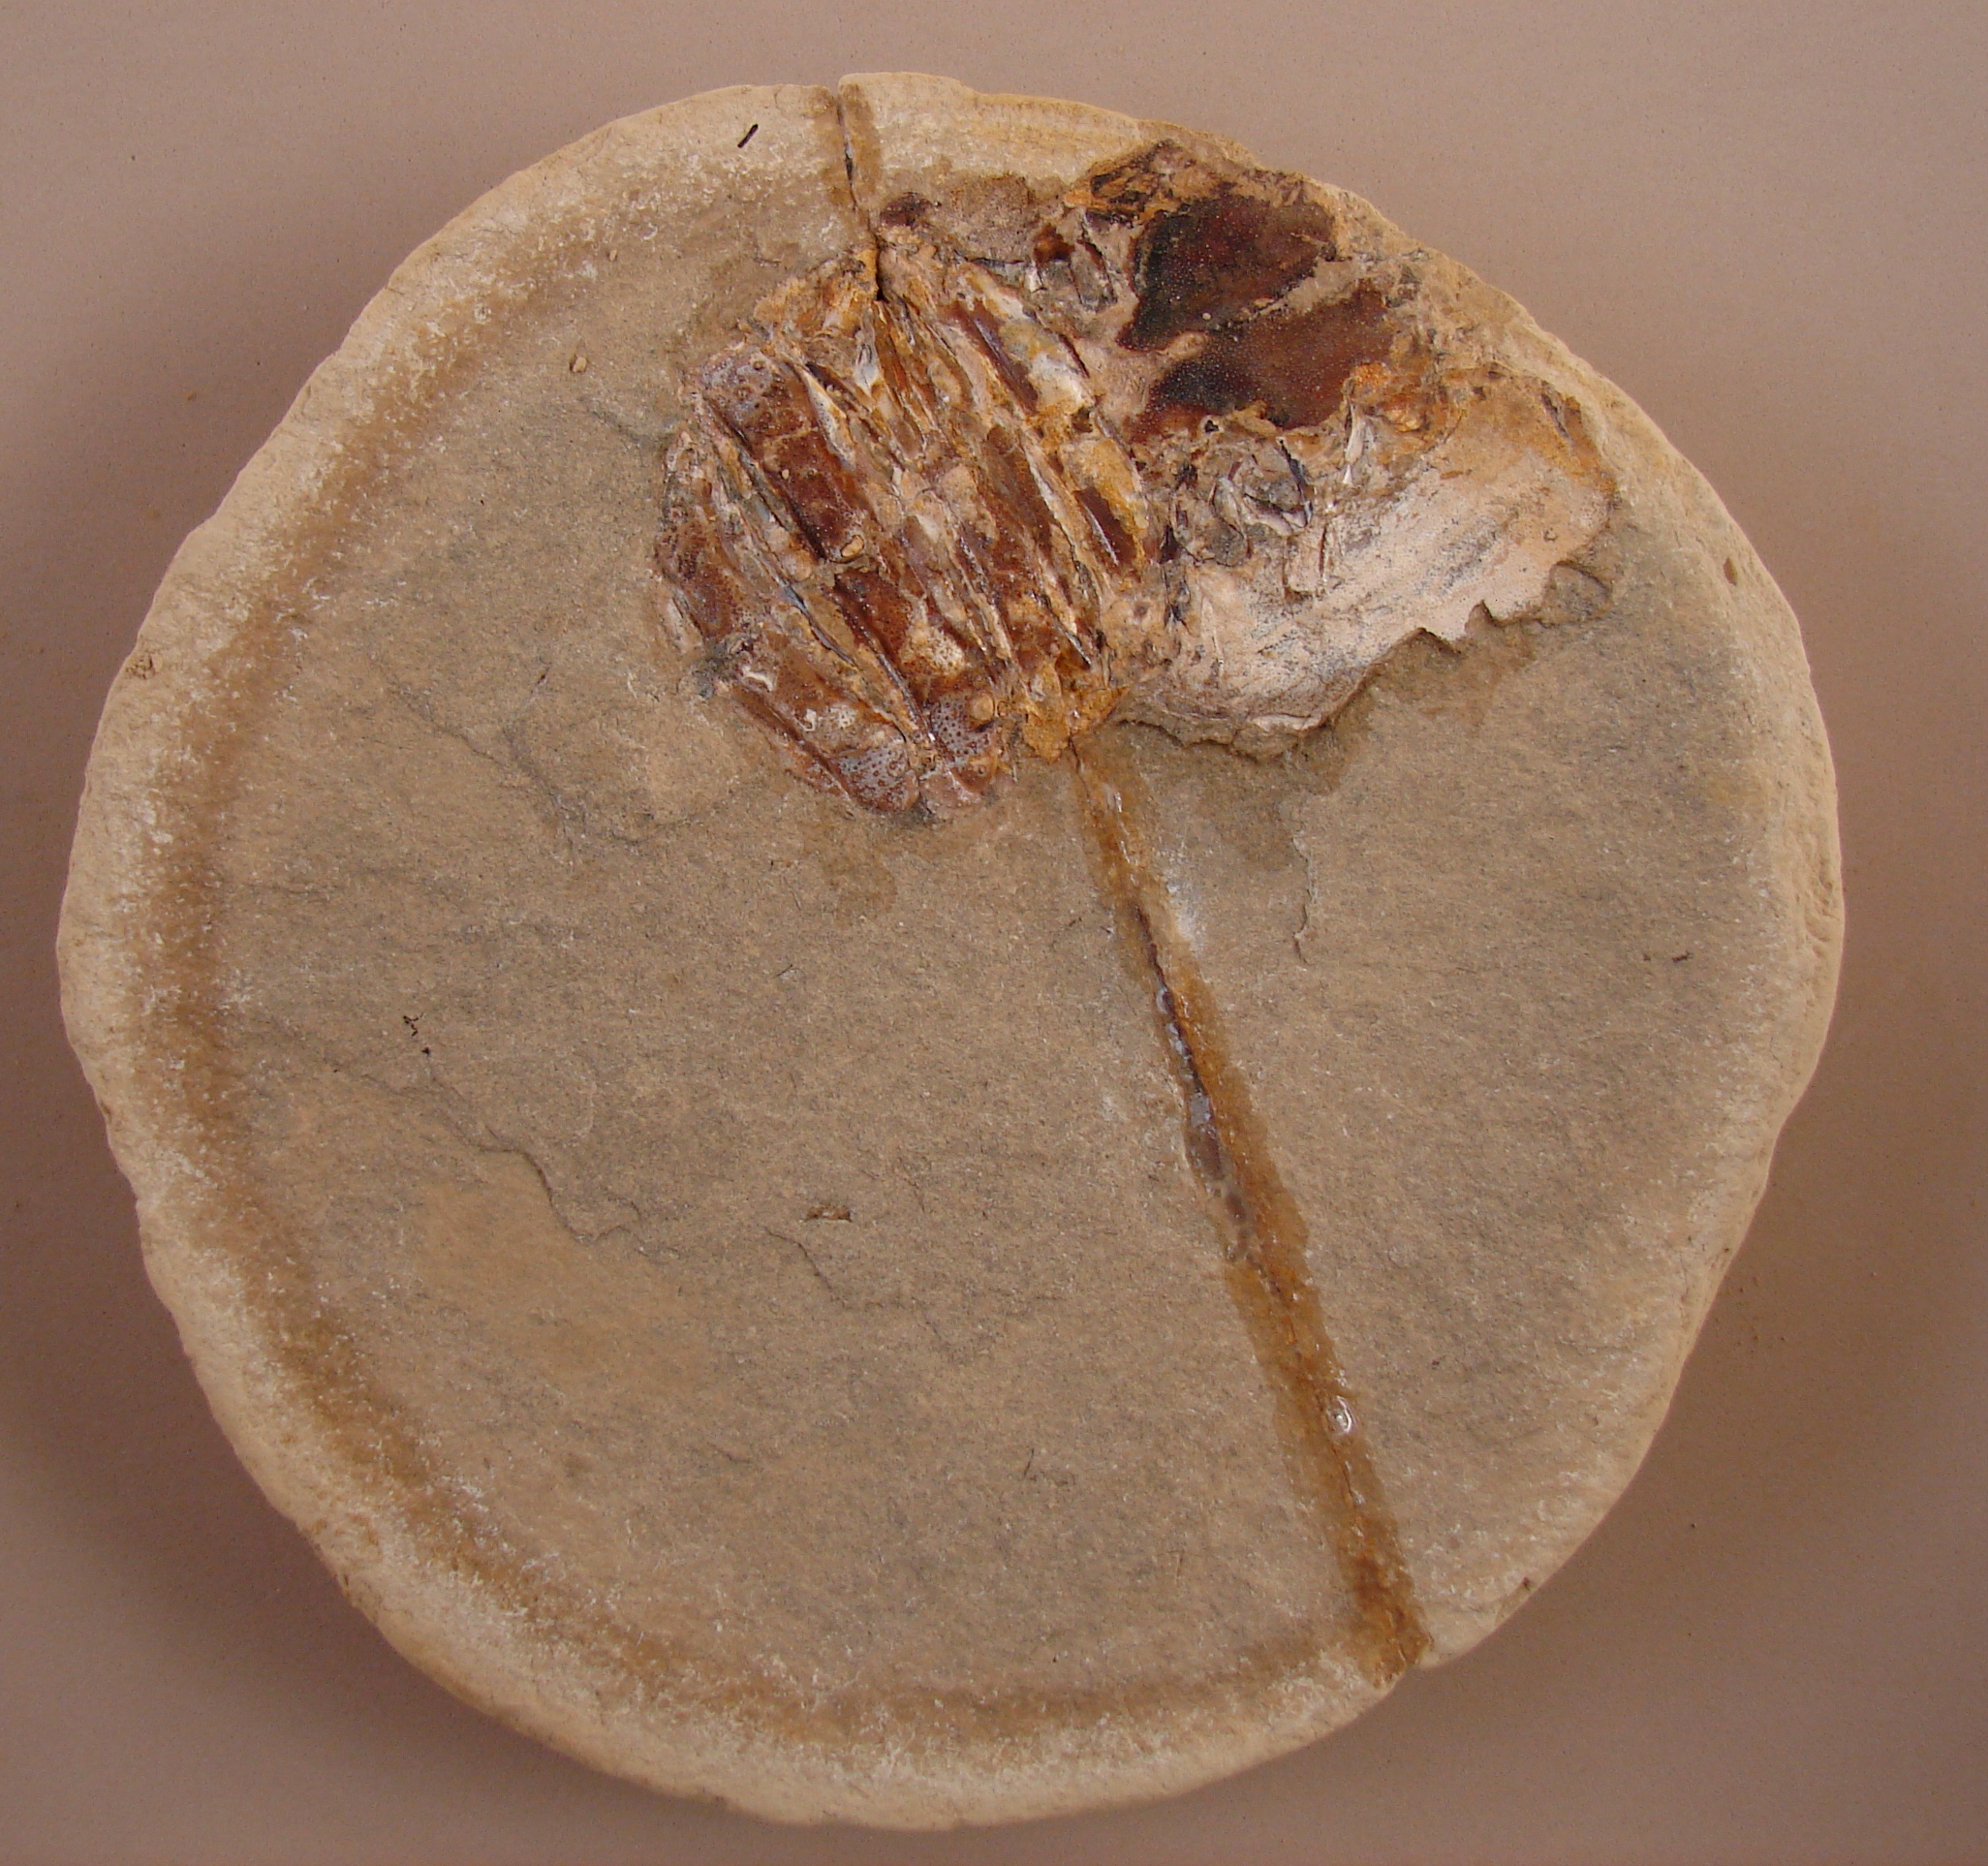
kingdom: Animalia
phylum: Arthropoda
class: Malacostraca
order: Decapoda
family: Coleiidae
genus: Proeryon
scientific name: Proeryon
